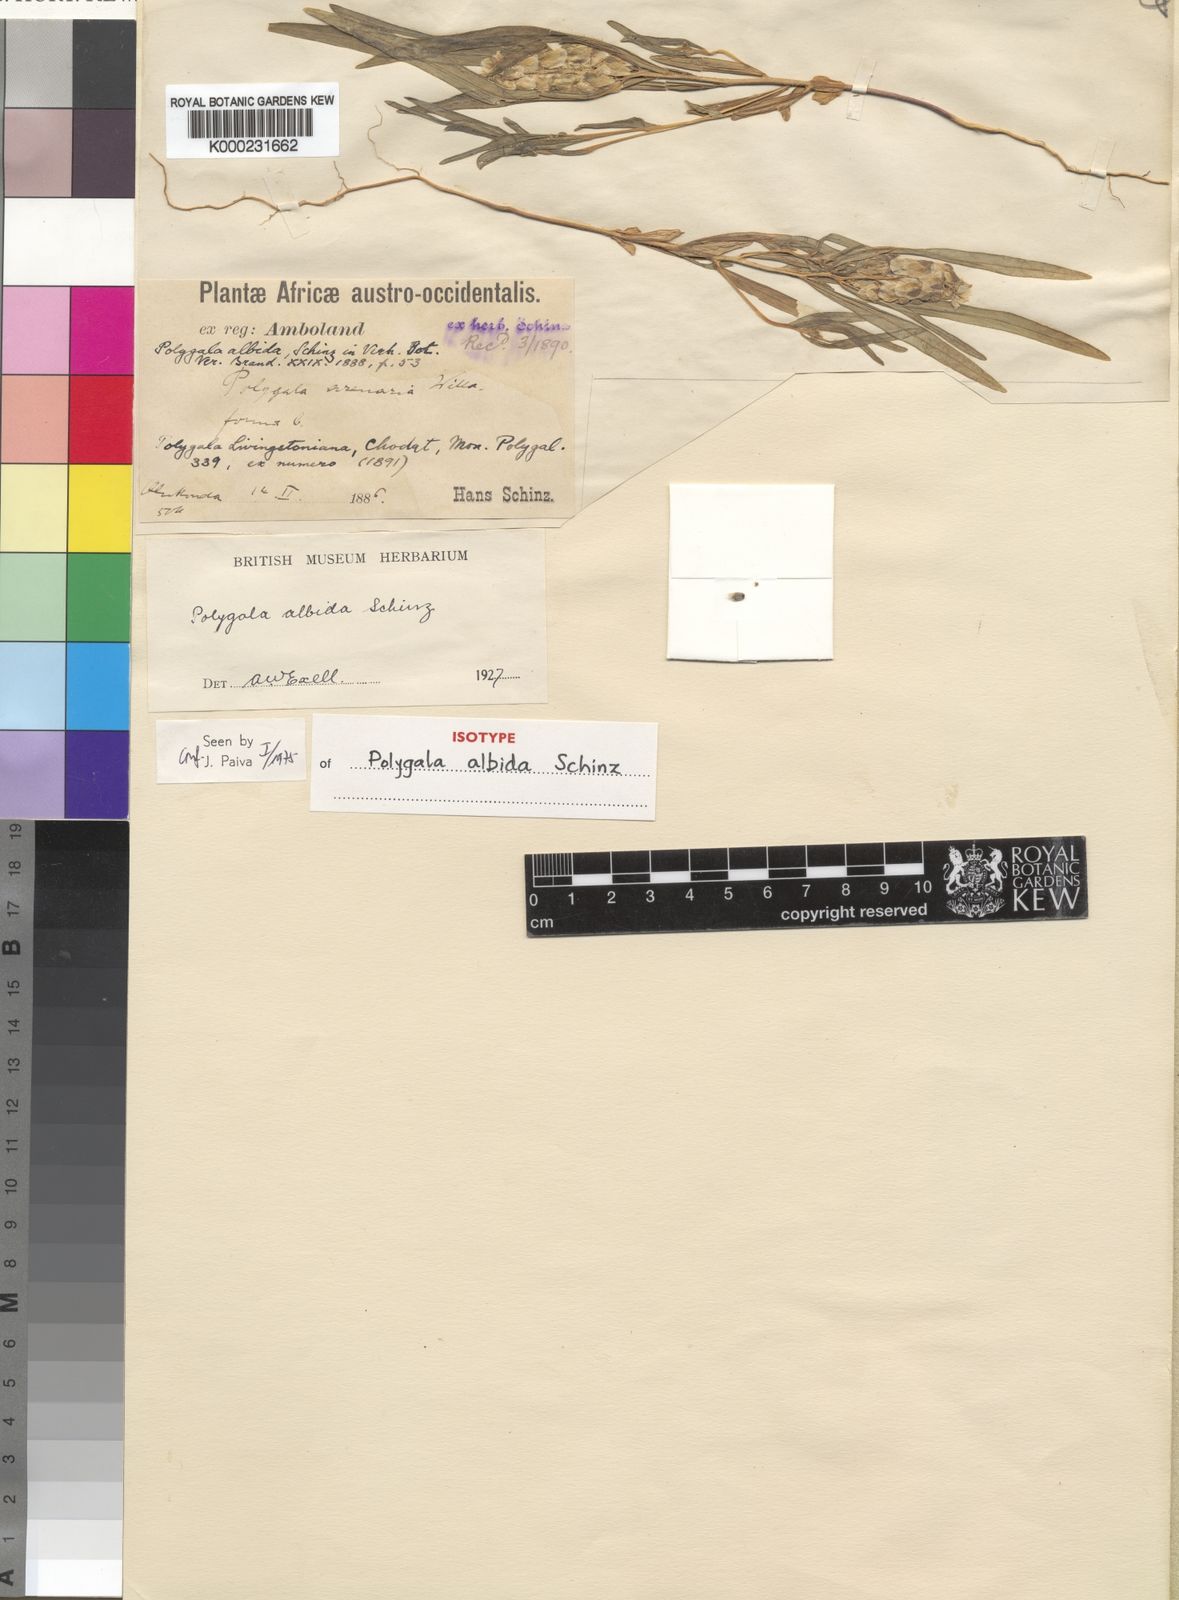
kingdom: Plantae
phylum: Tracheophyta
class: Magnoliopsida
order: Fabales
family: Polygalaceae
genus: Polygala
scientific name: Polygala albida
